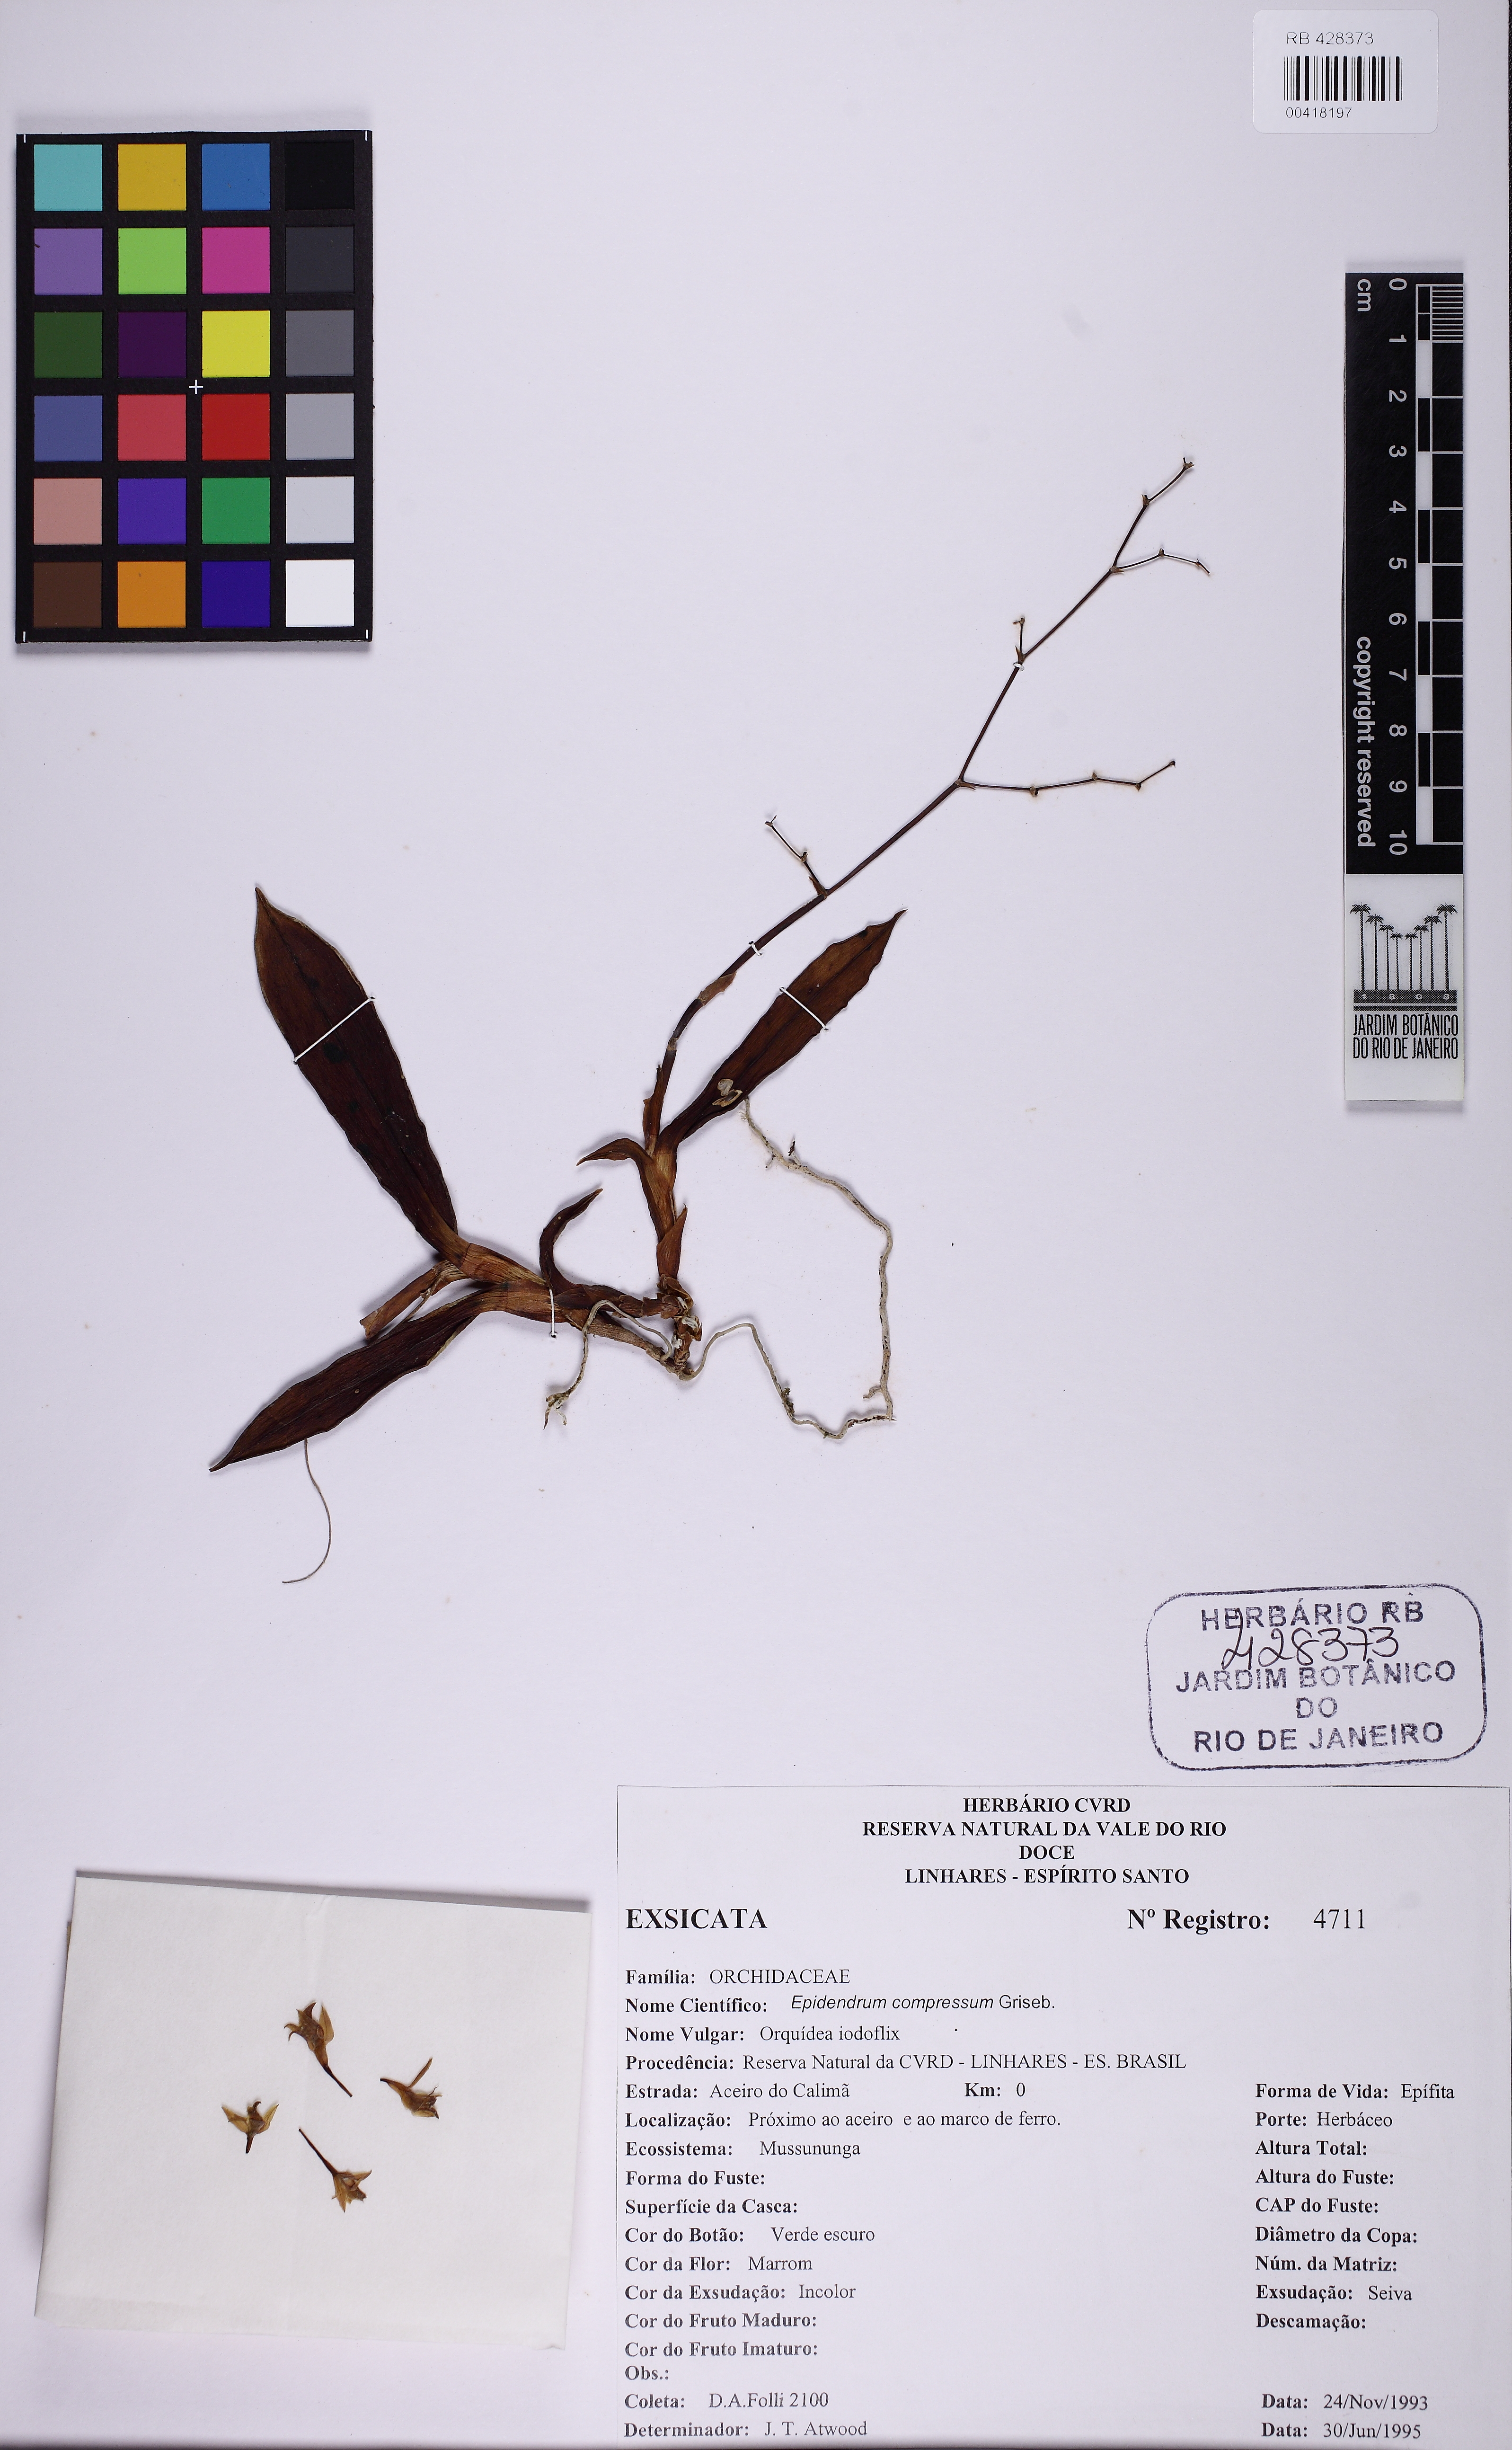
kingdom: Plantae
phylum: Tracheophyta
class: Liliopsida
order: Asparagales
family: Orchidaceae
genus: Epidendrum
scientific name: Epidendrum compressum
